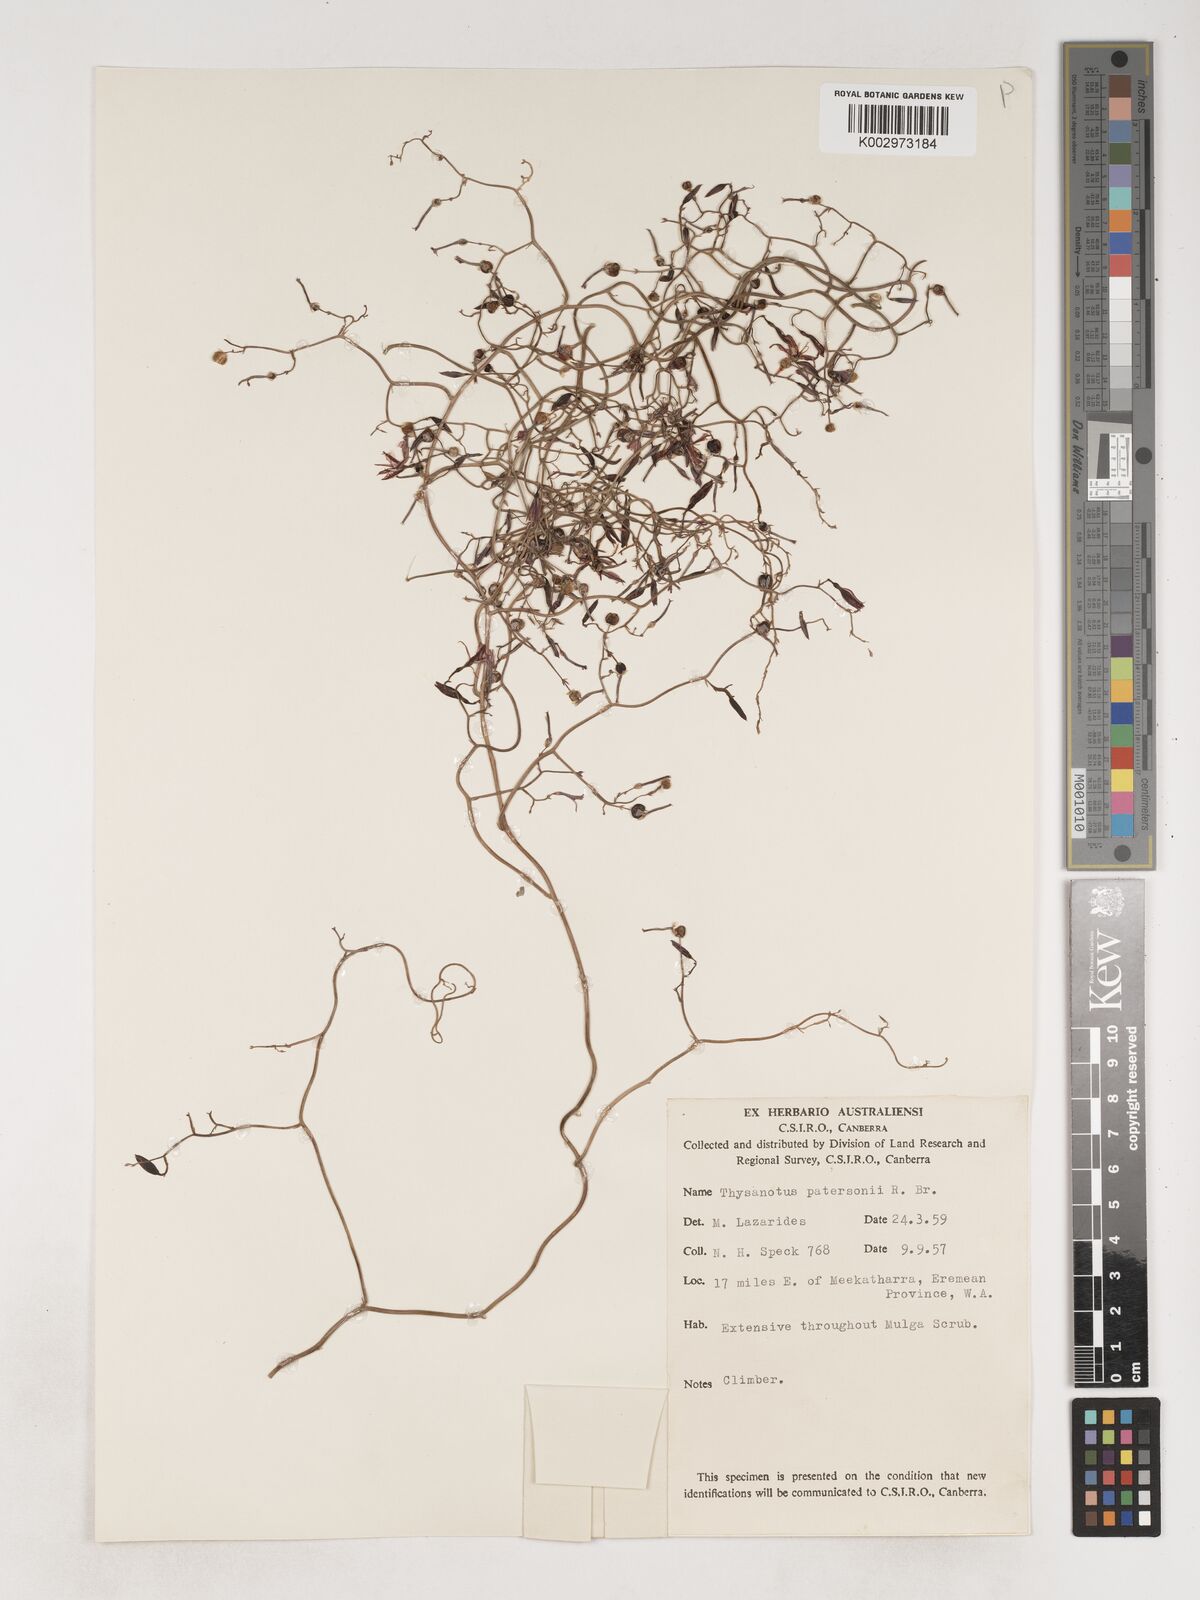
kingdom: Plantae
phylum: Tracheophyta
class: Liliopsida
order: Asparagales
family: Asparagaceae
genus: Thysanotus
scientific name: Thysanotus patersonii
